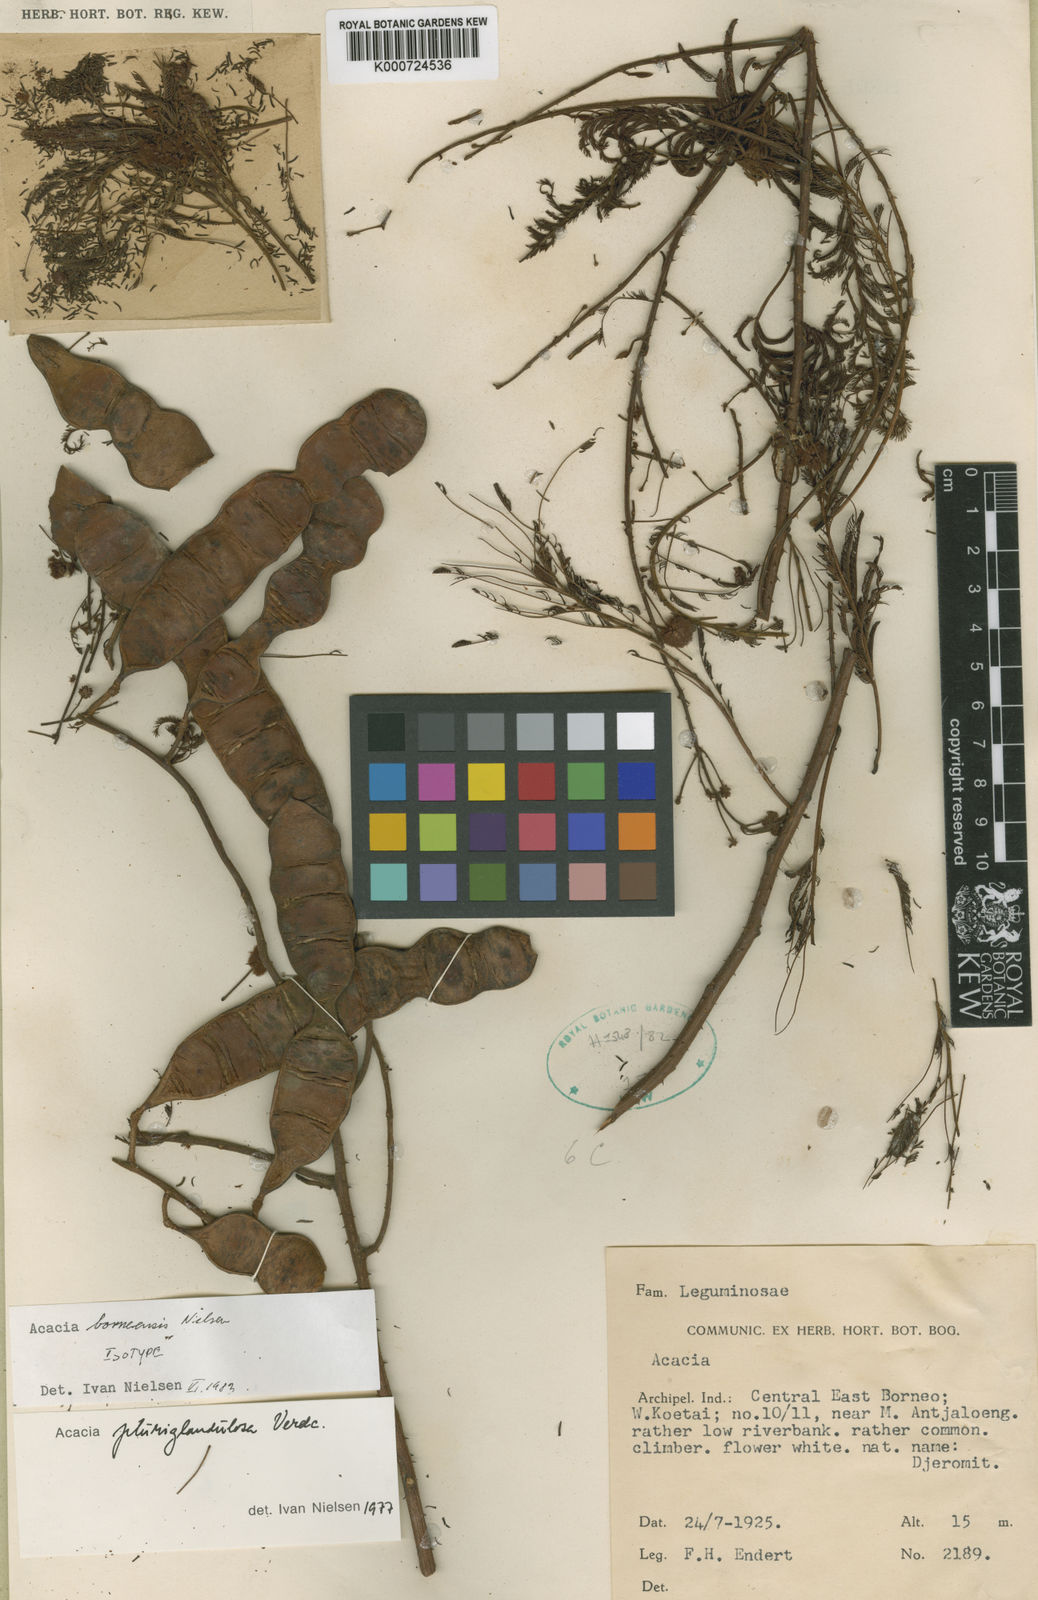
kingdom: Plantae
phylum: Tracheophyta
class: Magnoliopsida
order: Fabales
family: Fabaceae
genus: Senegalia
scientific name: Senegalia borneensis
